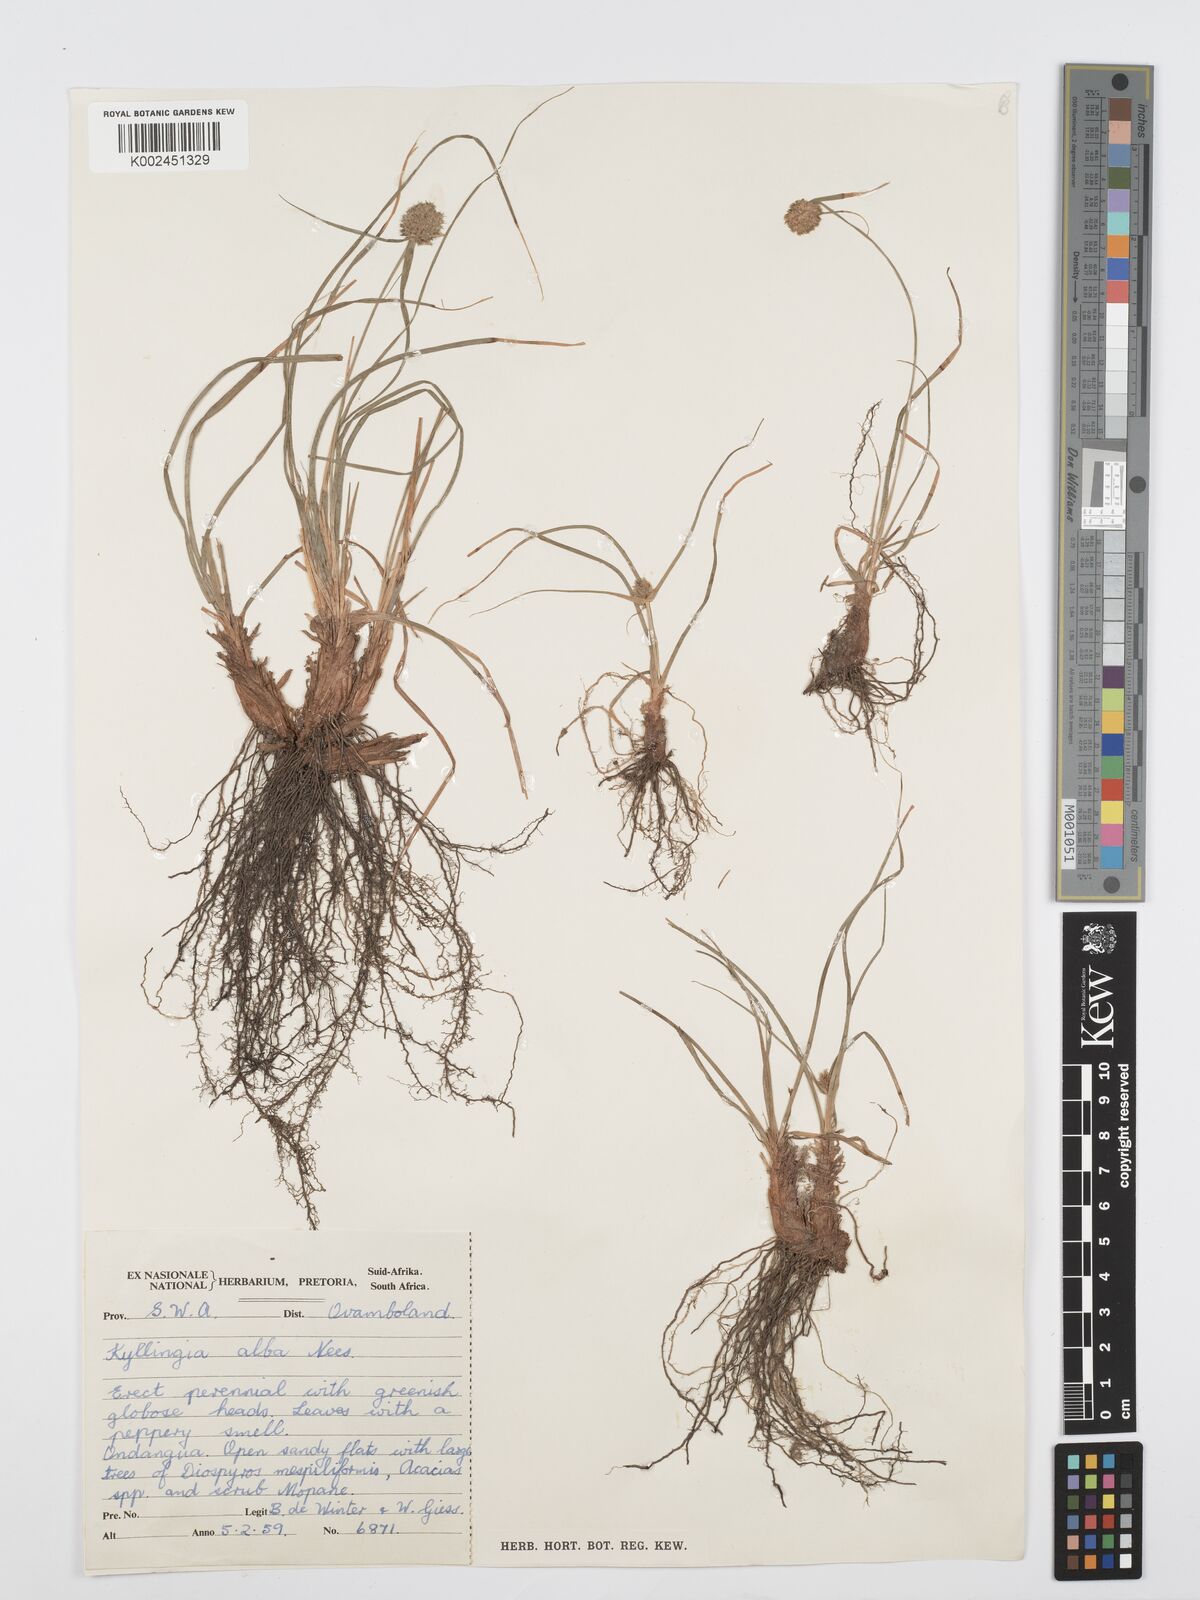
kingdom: Plantae
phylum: Tracheophyta
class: Liliopsida
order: Poales
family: Cyperaceae
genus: Cyperus
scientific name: Cyperus
